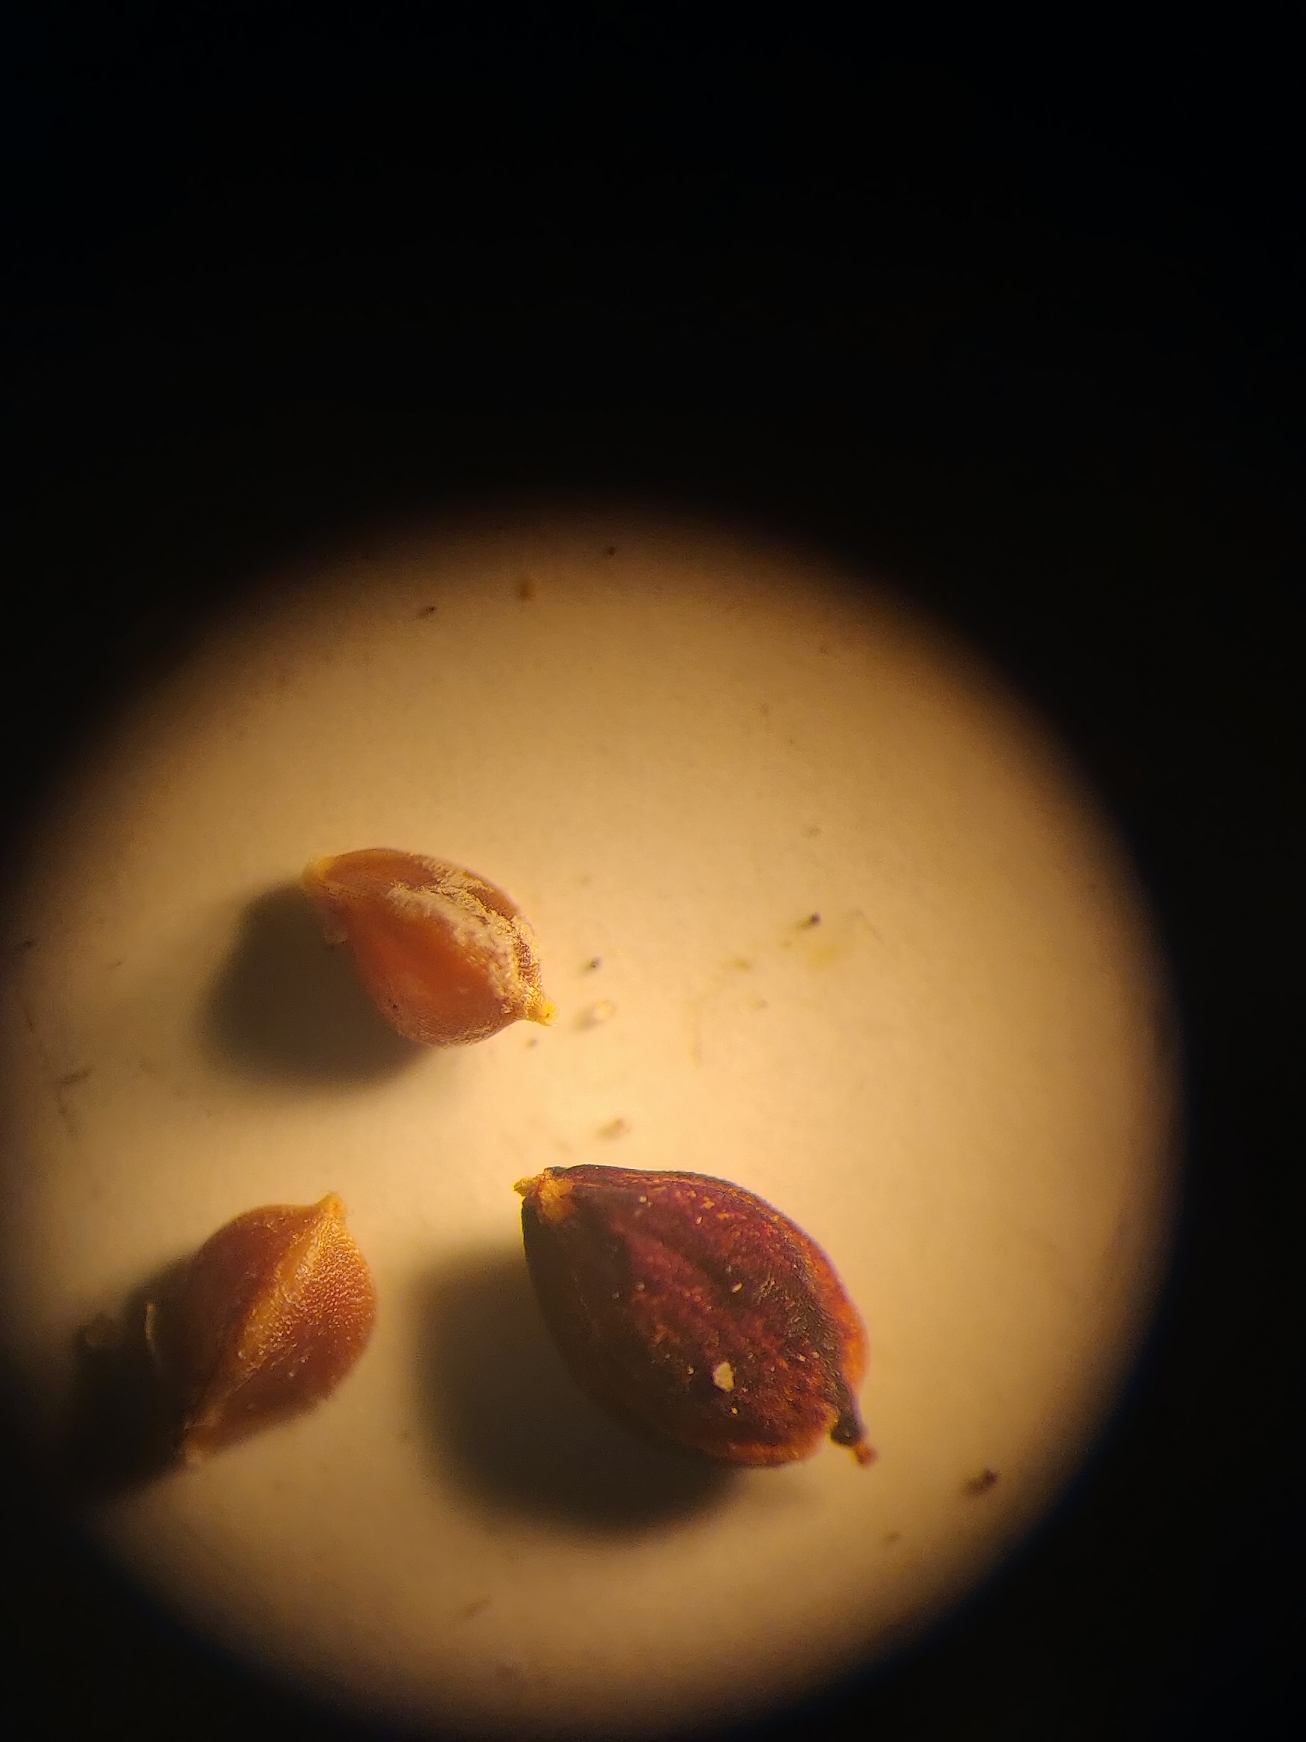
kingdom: Plantae
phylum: Tracheophyta
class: Liliopsida
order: Poales
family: Cyperaceae
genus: Carex
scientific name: Carex flacca
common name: Blågrøn star
